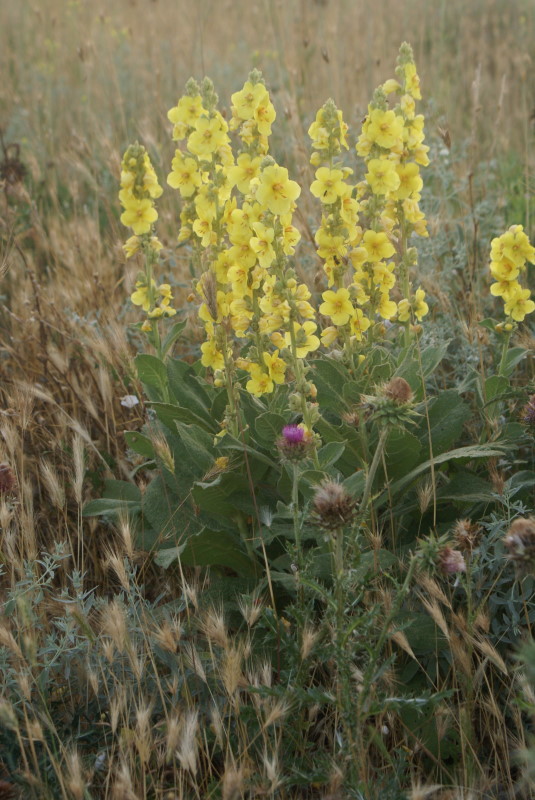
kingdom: Plantae
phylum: Tracheophyta
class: Magnoliopsida
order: Lamiales
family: Scrophulariaceae
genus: Verbascum
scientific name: Verbascum
